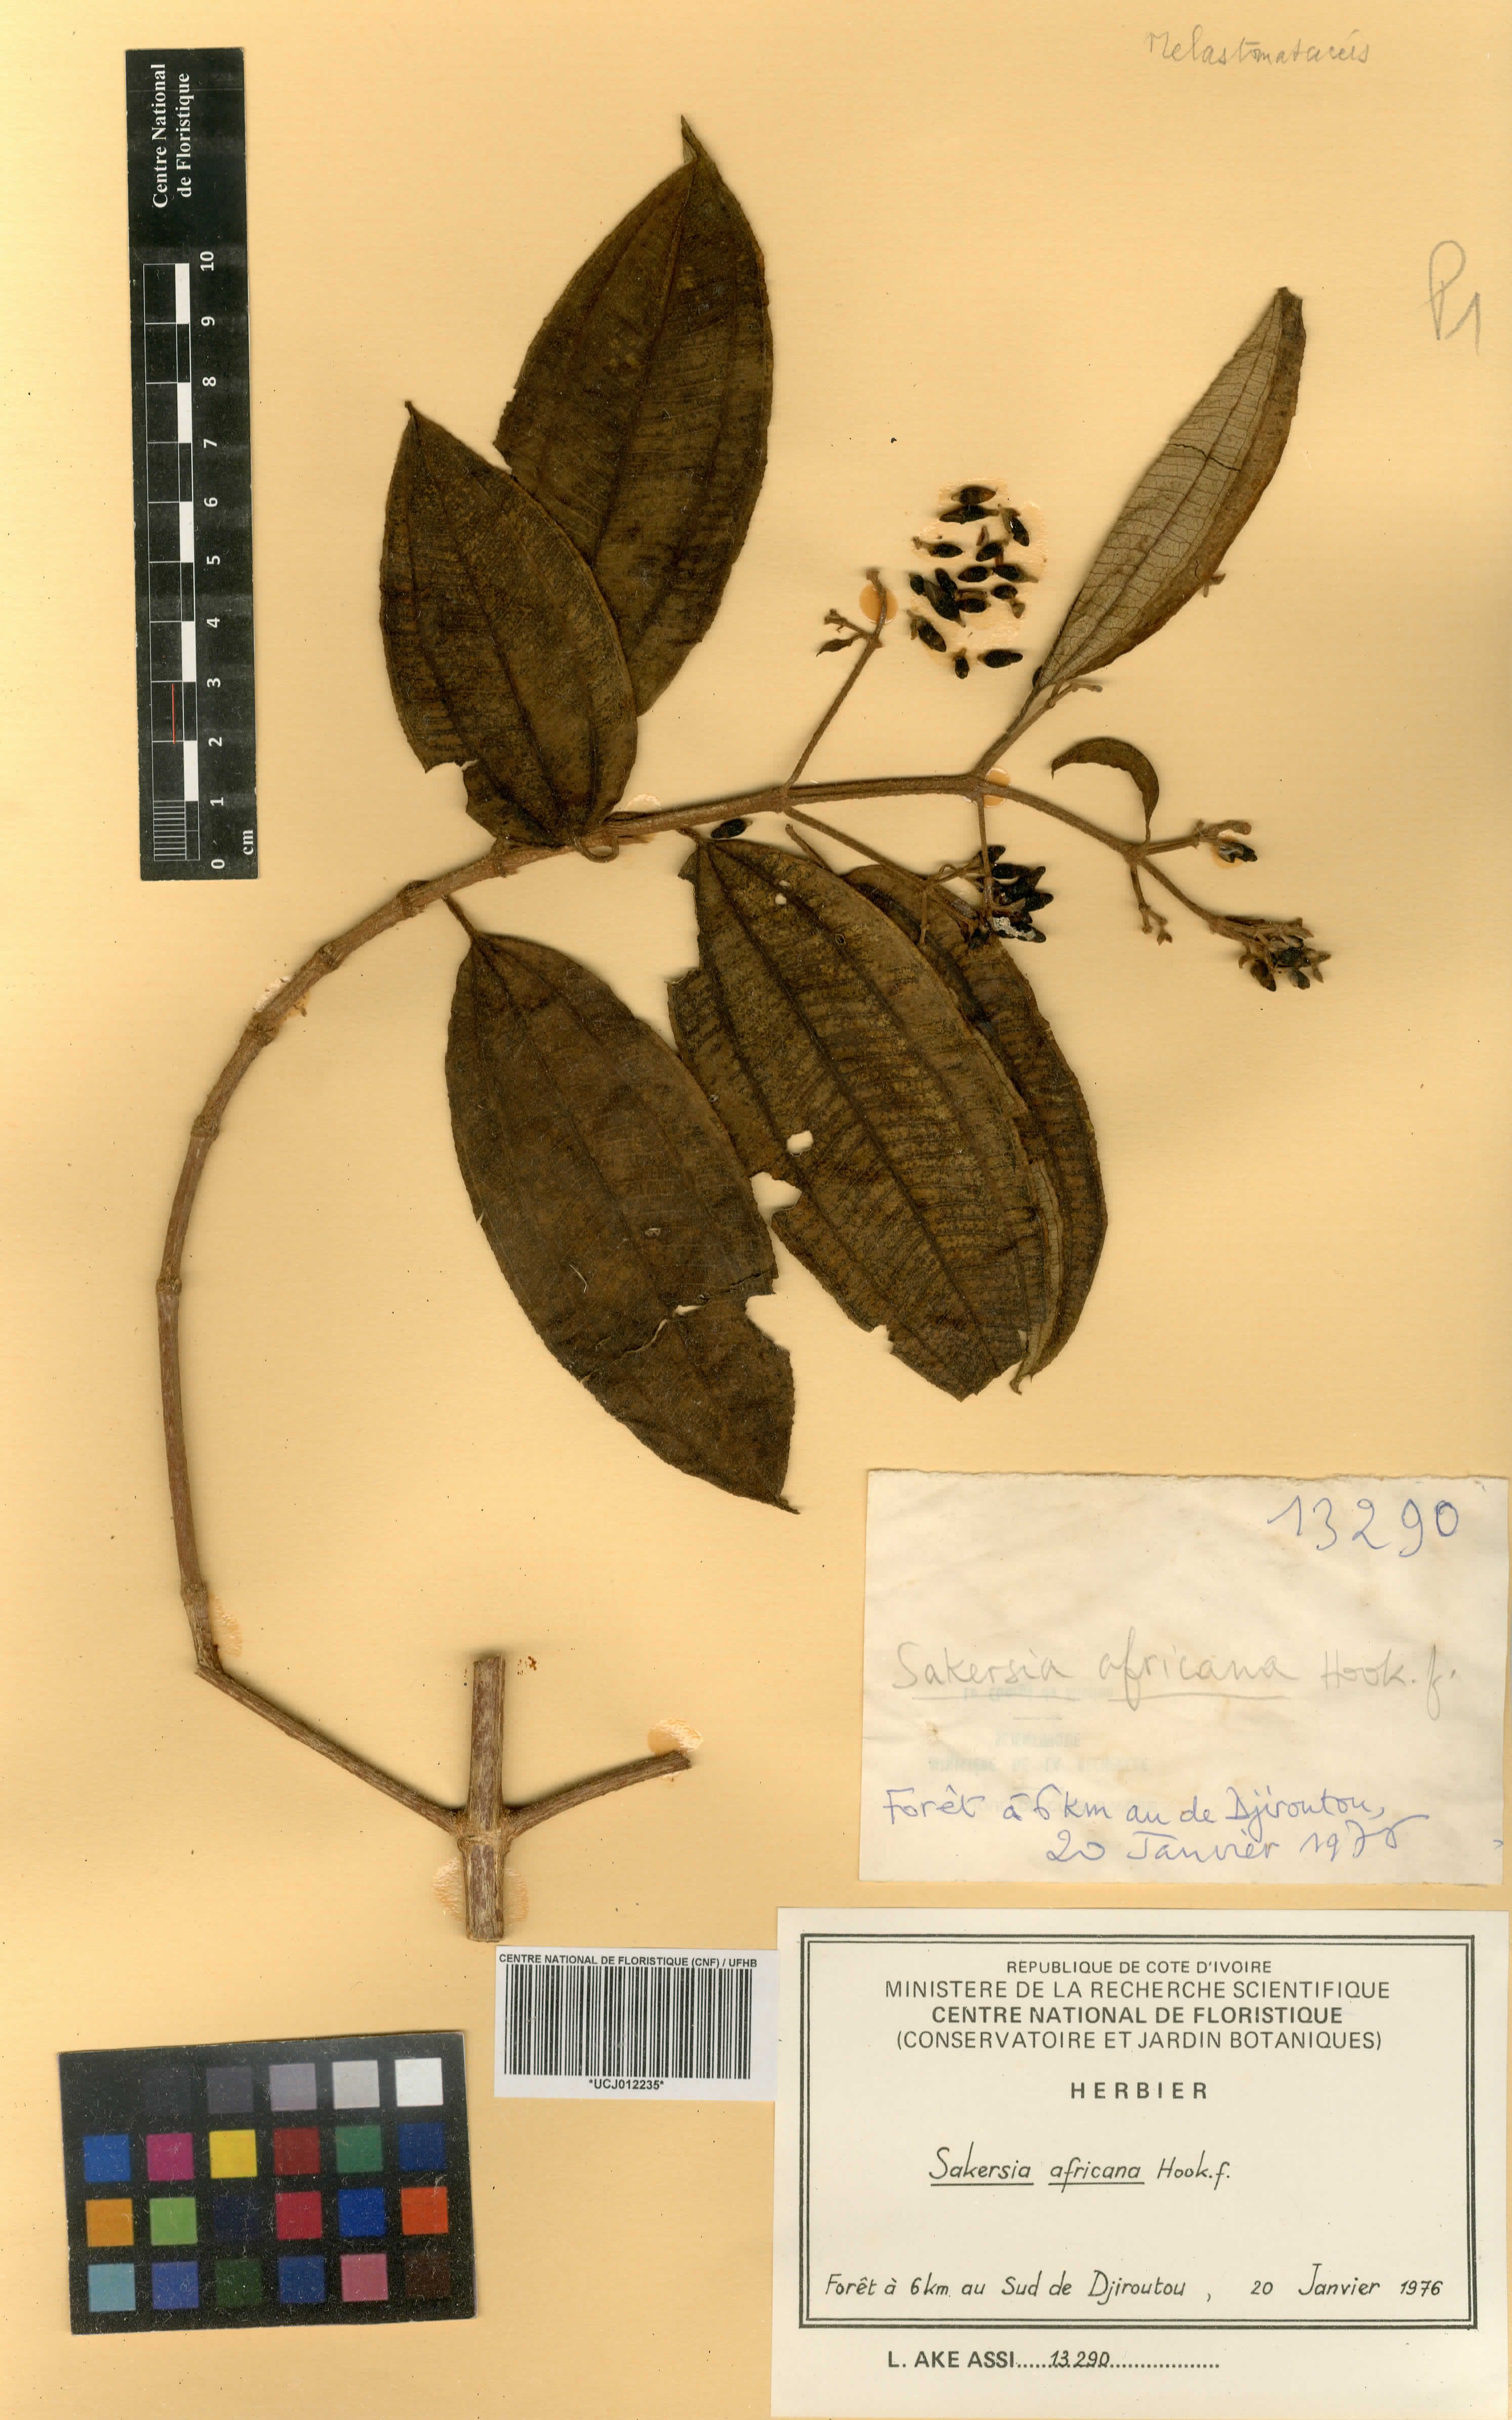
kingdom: Plantae
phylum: Tracheophyta
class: Magnoliopsida
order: Myrtales
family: Melastomataceae
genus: Dichaetanthera
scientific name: Dichaetanthera africana
